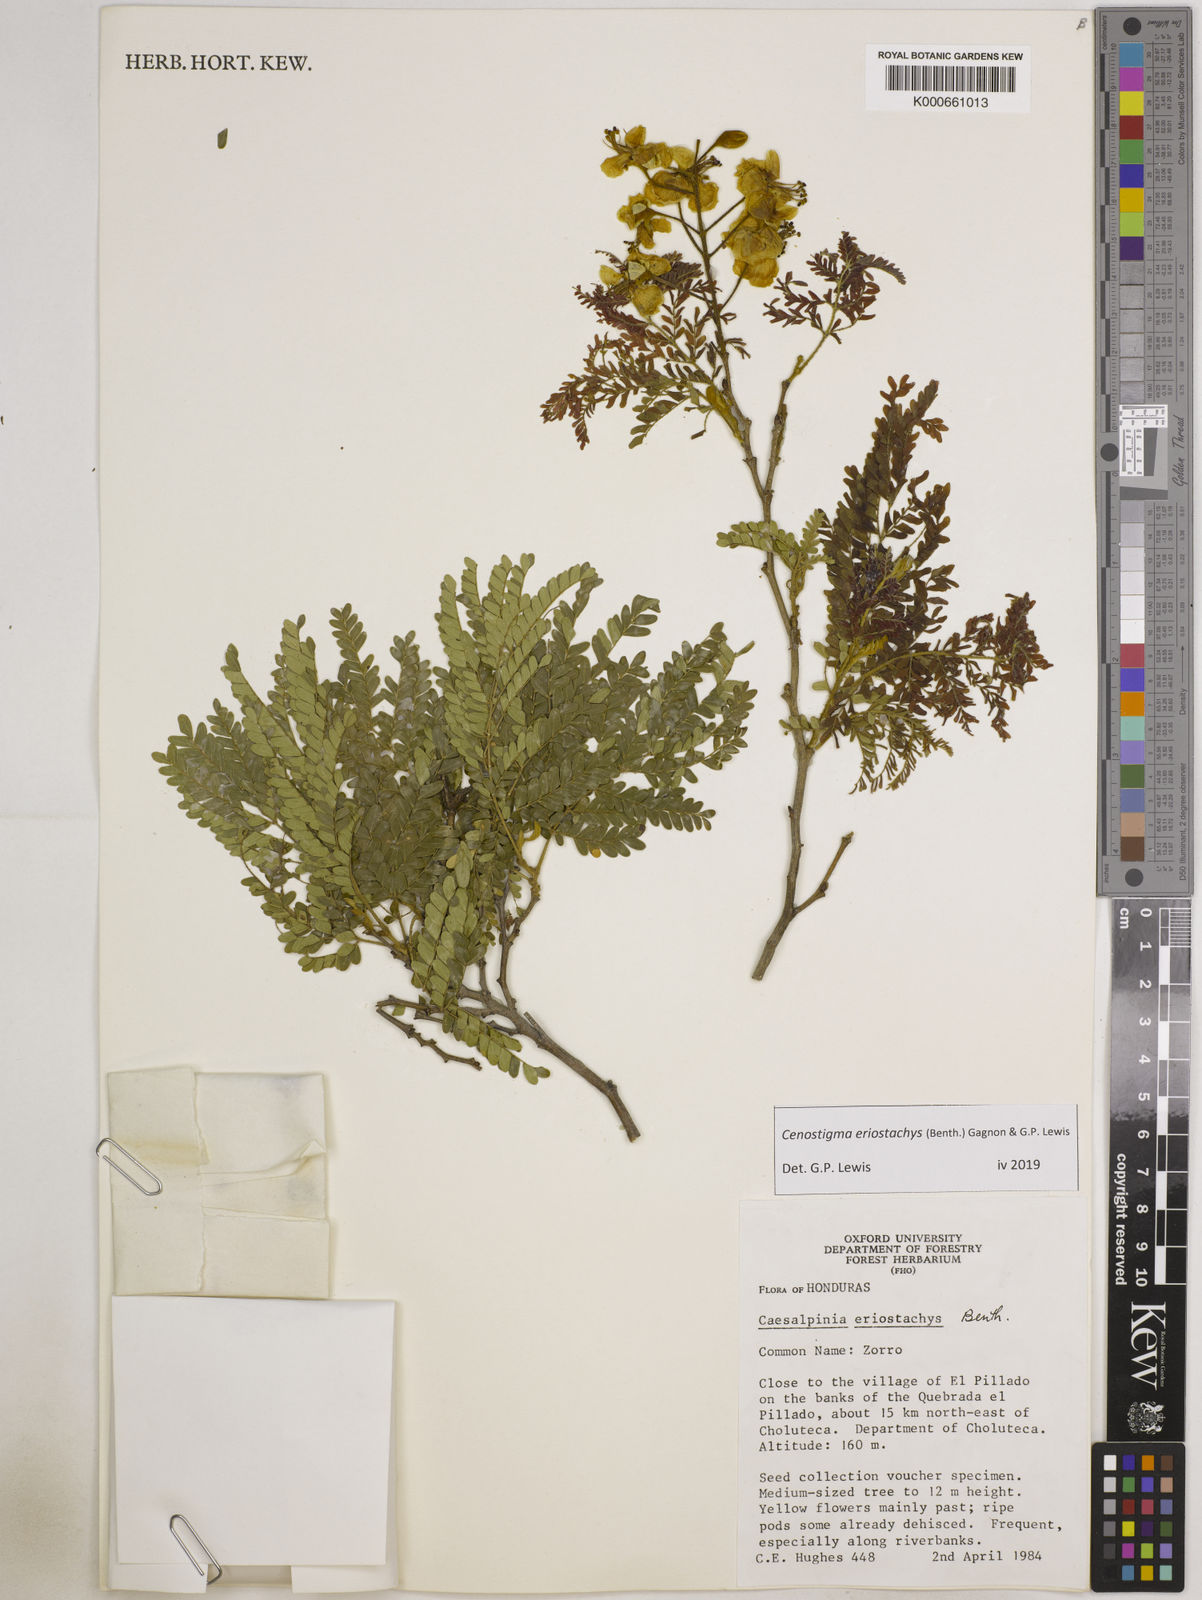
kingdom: Plantae
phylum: Tracheophyta
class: Magnoliopsida
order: Fabales
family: Fabaceae
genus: Cenostigma
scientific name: Cenostigma eriostachys
